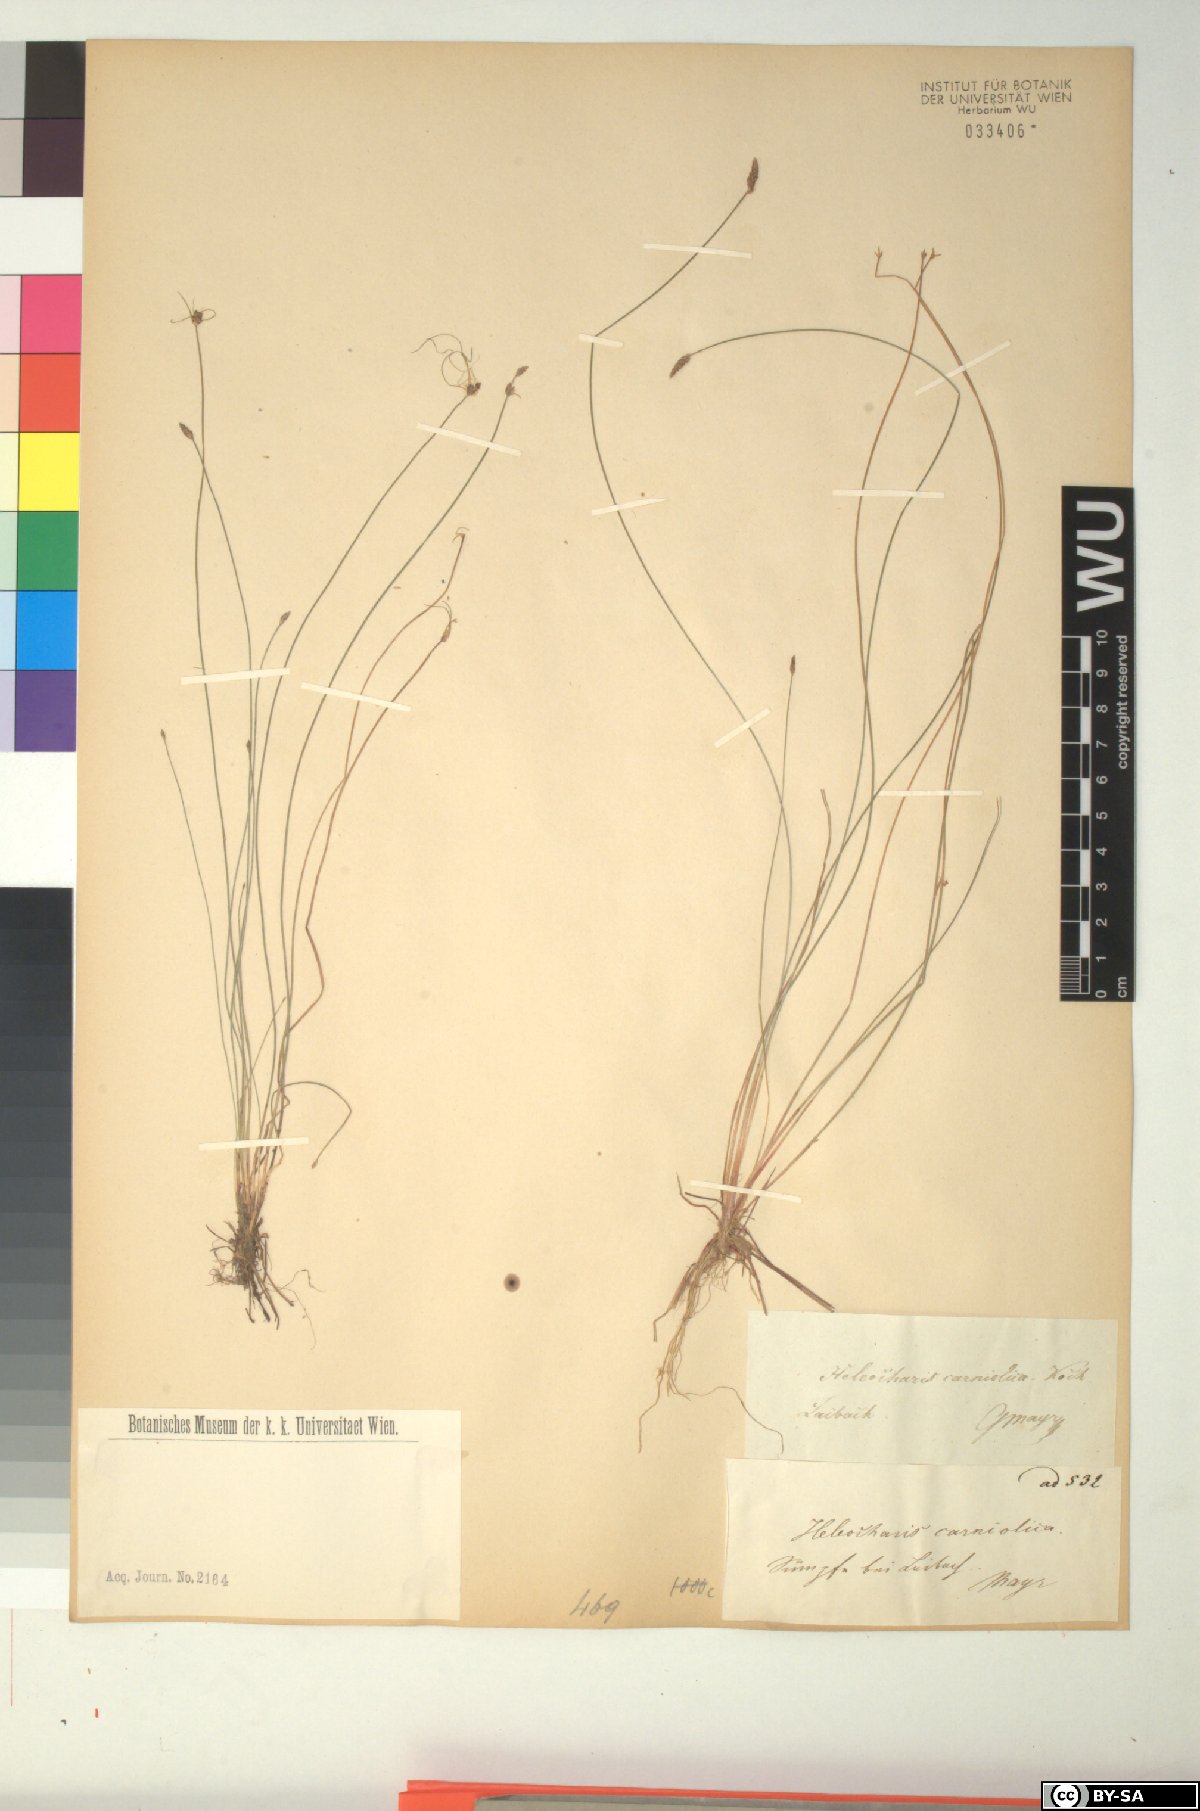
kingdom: Plantae
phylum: Tracheophyta
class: Liliopsida
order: Poales
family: Cyperaceae
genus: Eleocharis
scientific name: Eleocharis carniolica
